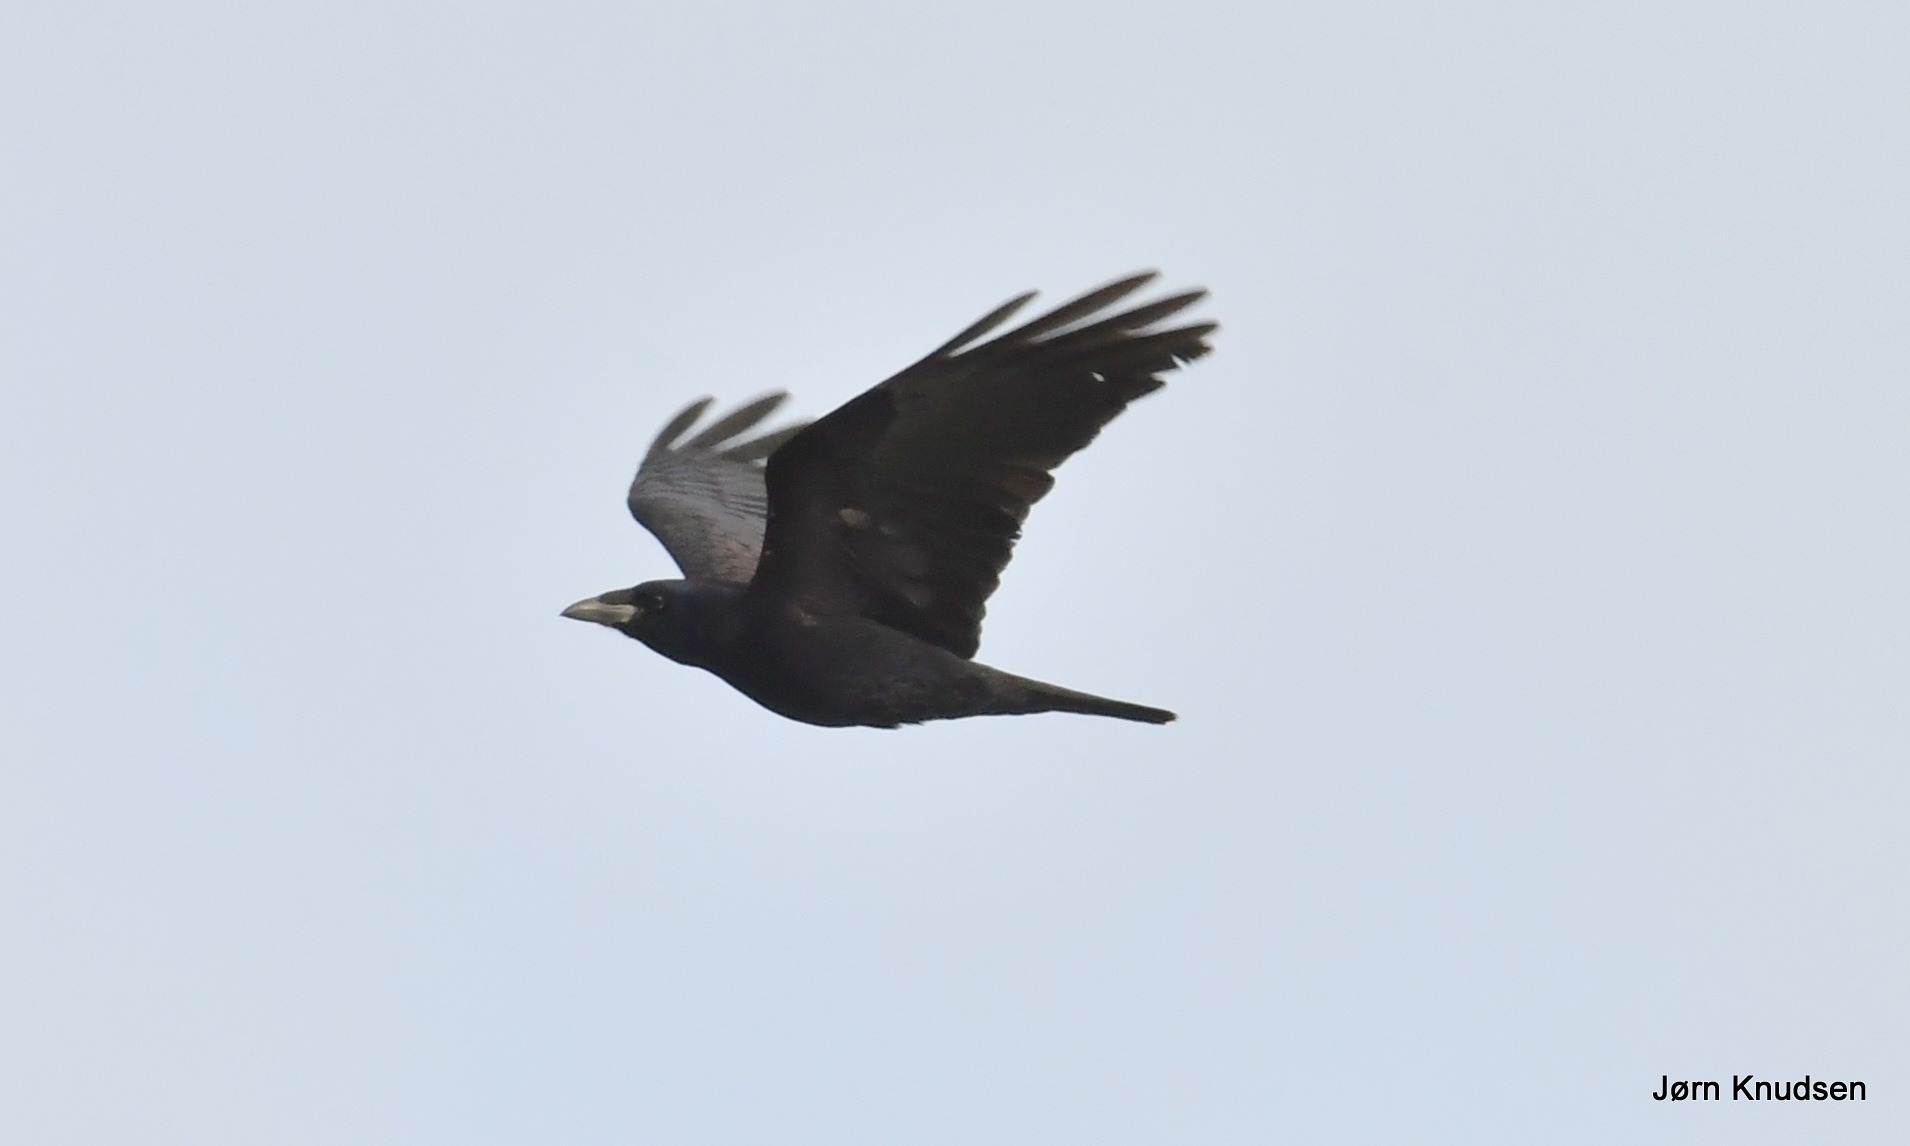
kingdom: Animalia
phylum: Chordata
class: Aves
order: Passeriformes
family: Corvidae
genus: Corvus
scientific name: Corvus frugilegus
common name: Råge
